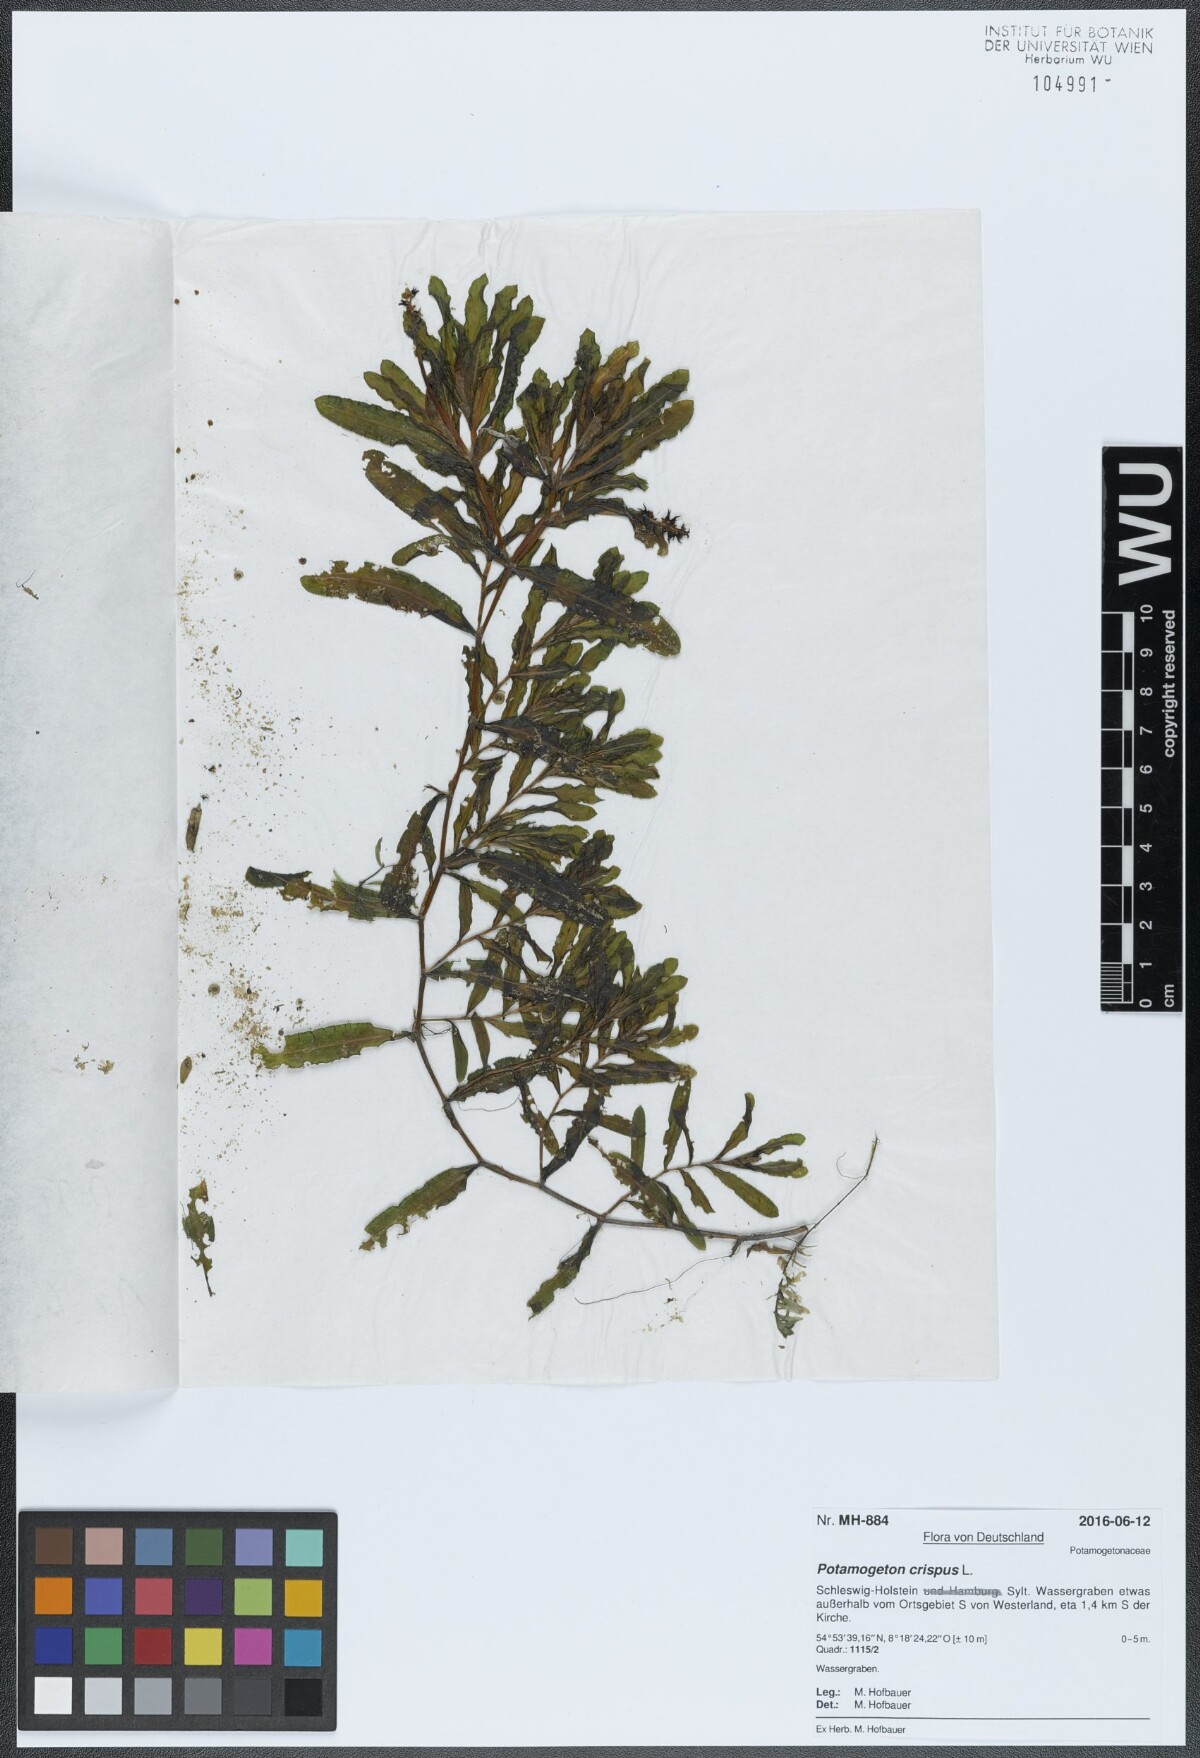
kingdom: Plantae
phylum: Tracheophyta
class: Liliopsida
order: Alismatales
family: Potamogetonaceae
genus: Potamogeton
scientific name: Potamogeton crispus
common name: Curled pondweed
